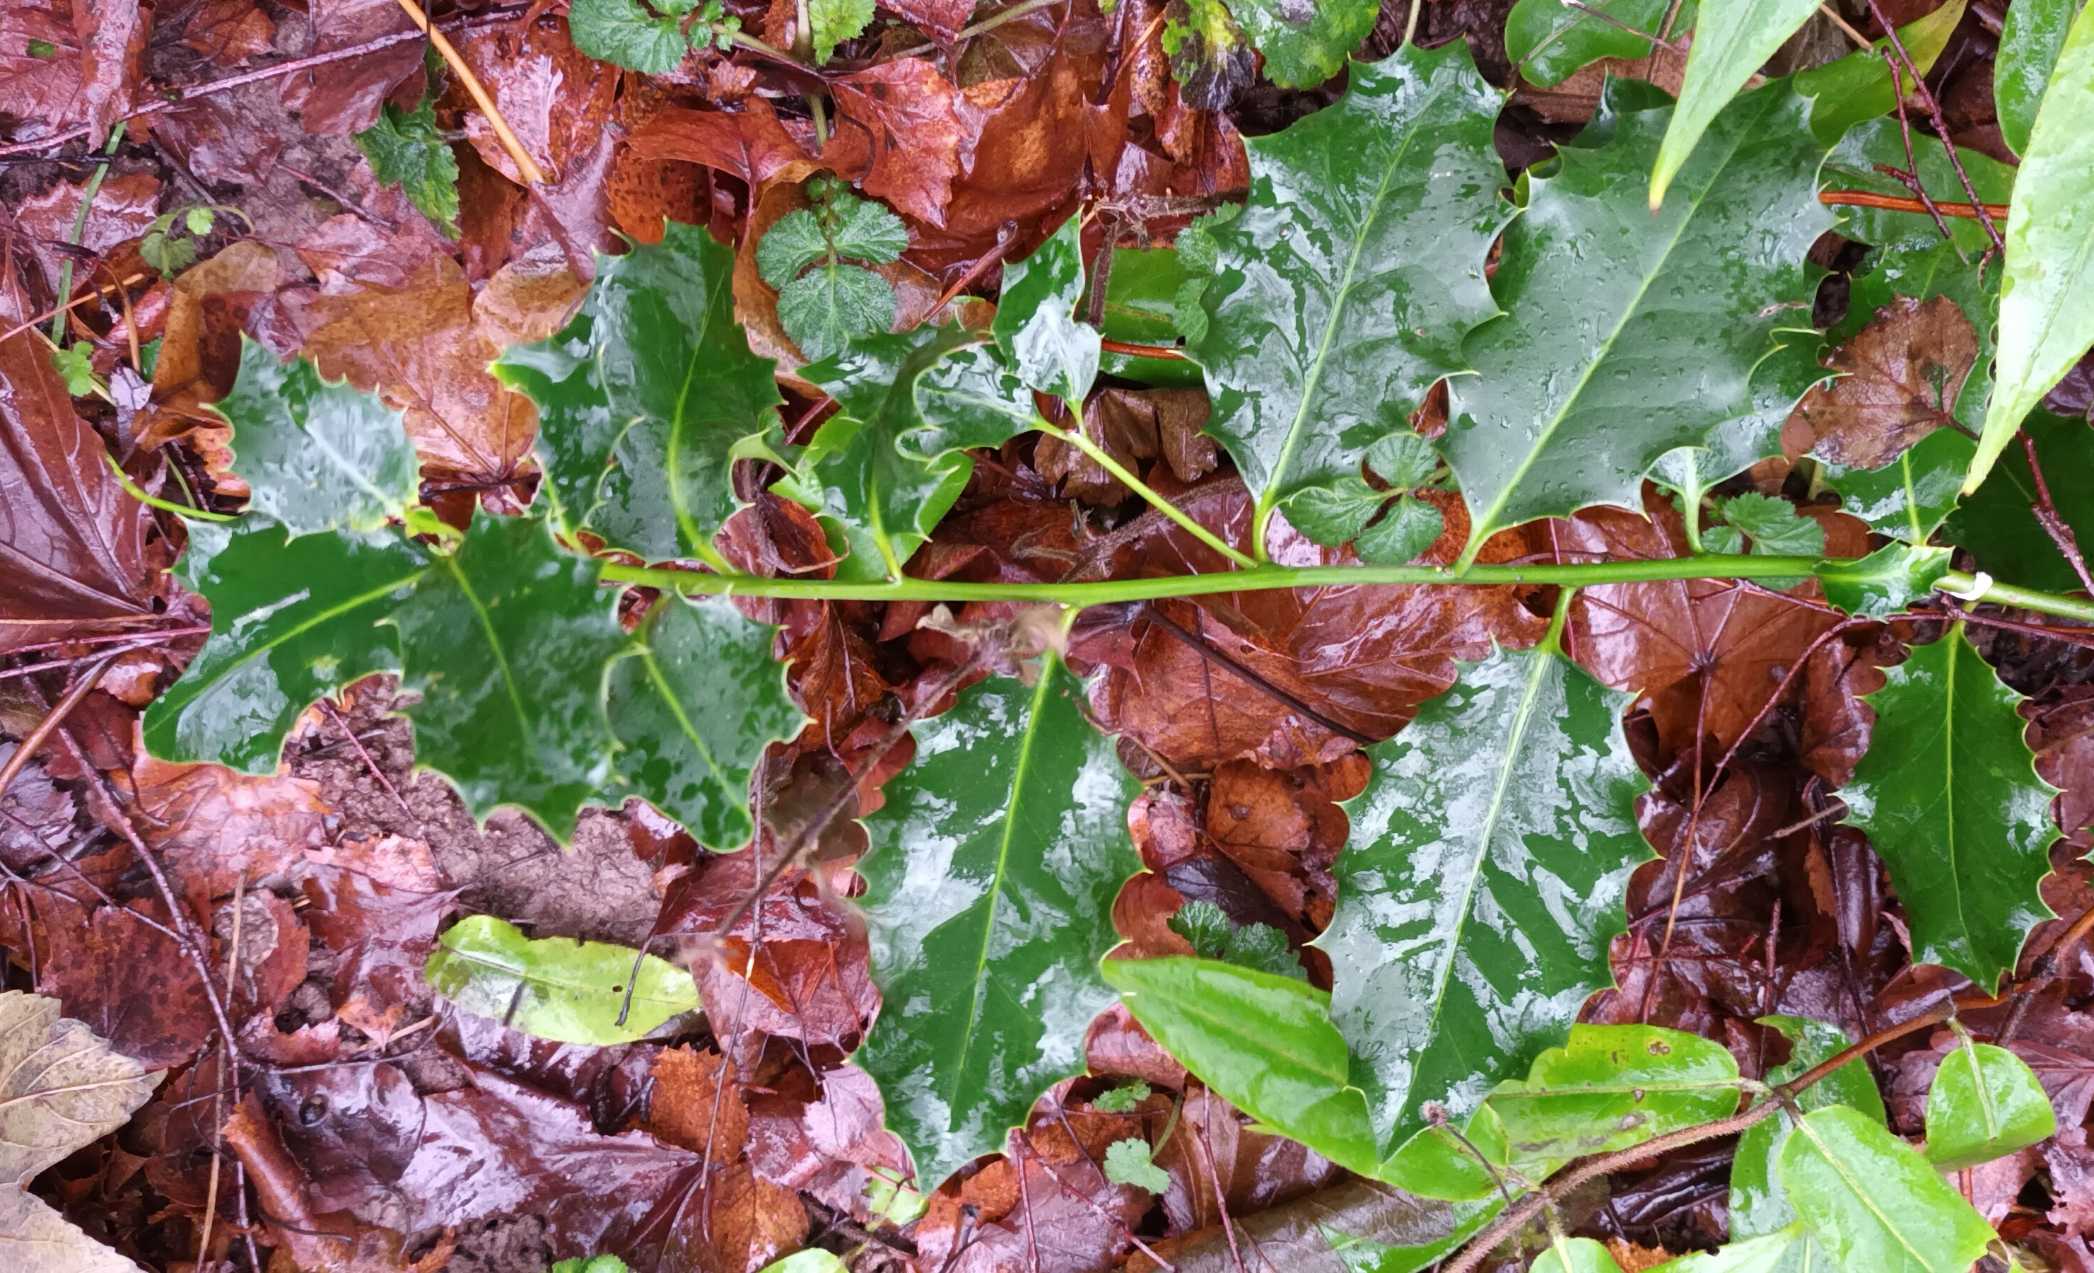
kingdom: Plantae
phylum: Tracheophyta
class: Magnoliopsida
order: Aquifoliales
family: Aquifoliaceae
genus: Ilex
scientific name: Ilex aquifolium
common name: Kristtorn
